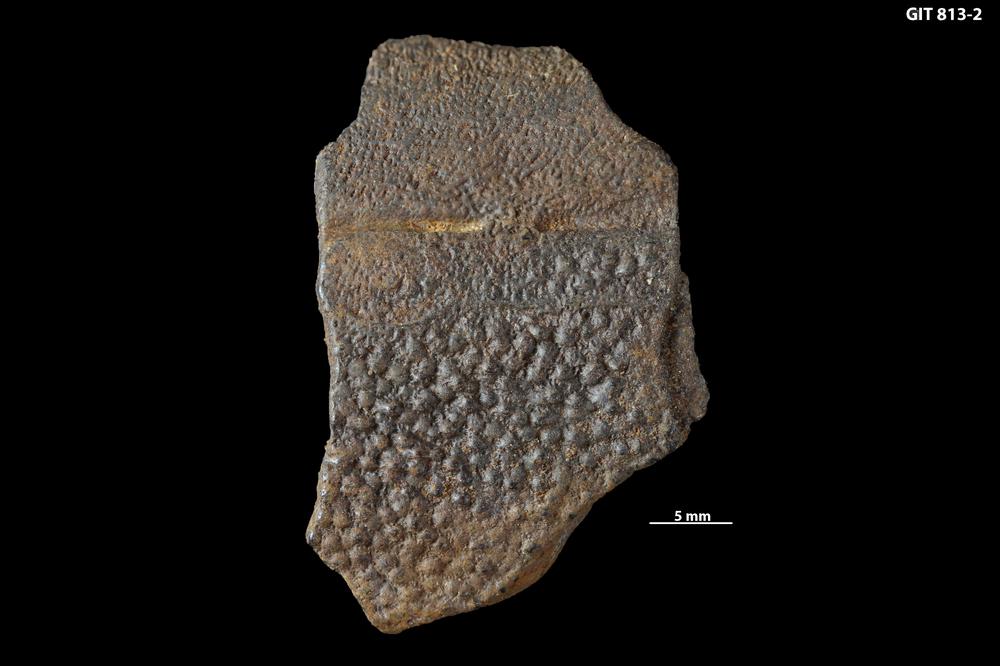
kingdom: Animalia
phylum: Chordata
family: Homostiidae
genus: Homostius
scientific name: Homostius
